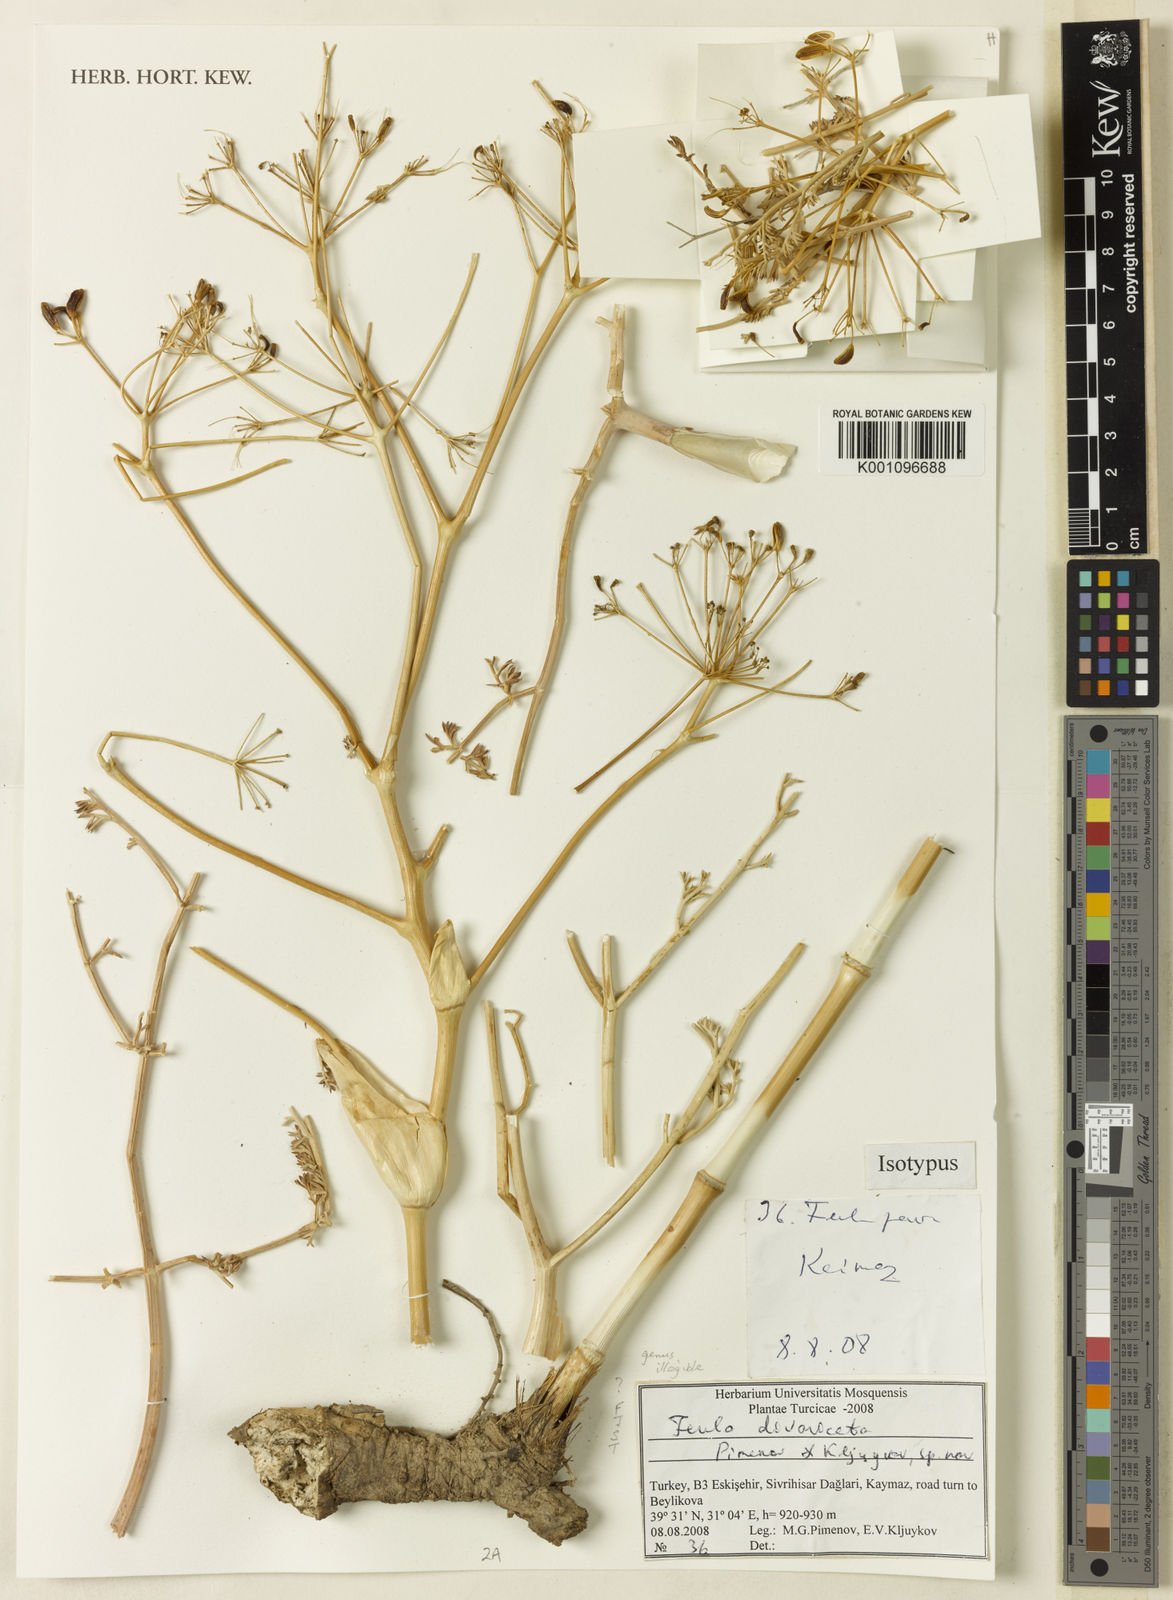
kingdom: Plantae
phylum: Tracheophyta
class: Magnoliopsida
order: Apiales
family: Apiaceae
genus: Ferula
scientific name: Ferula divaricata
